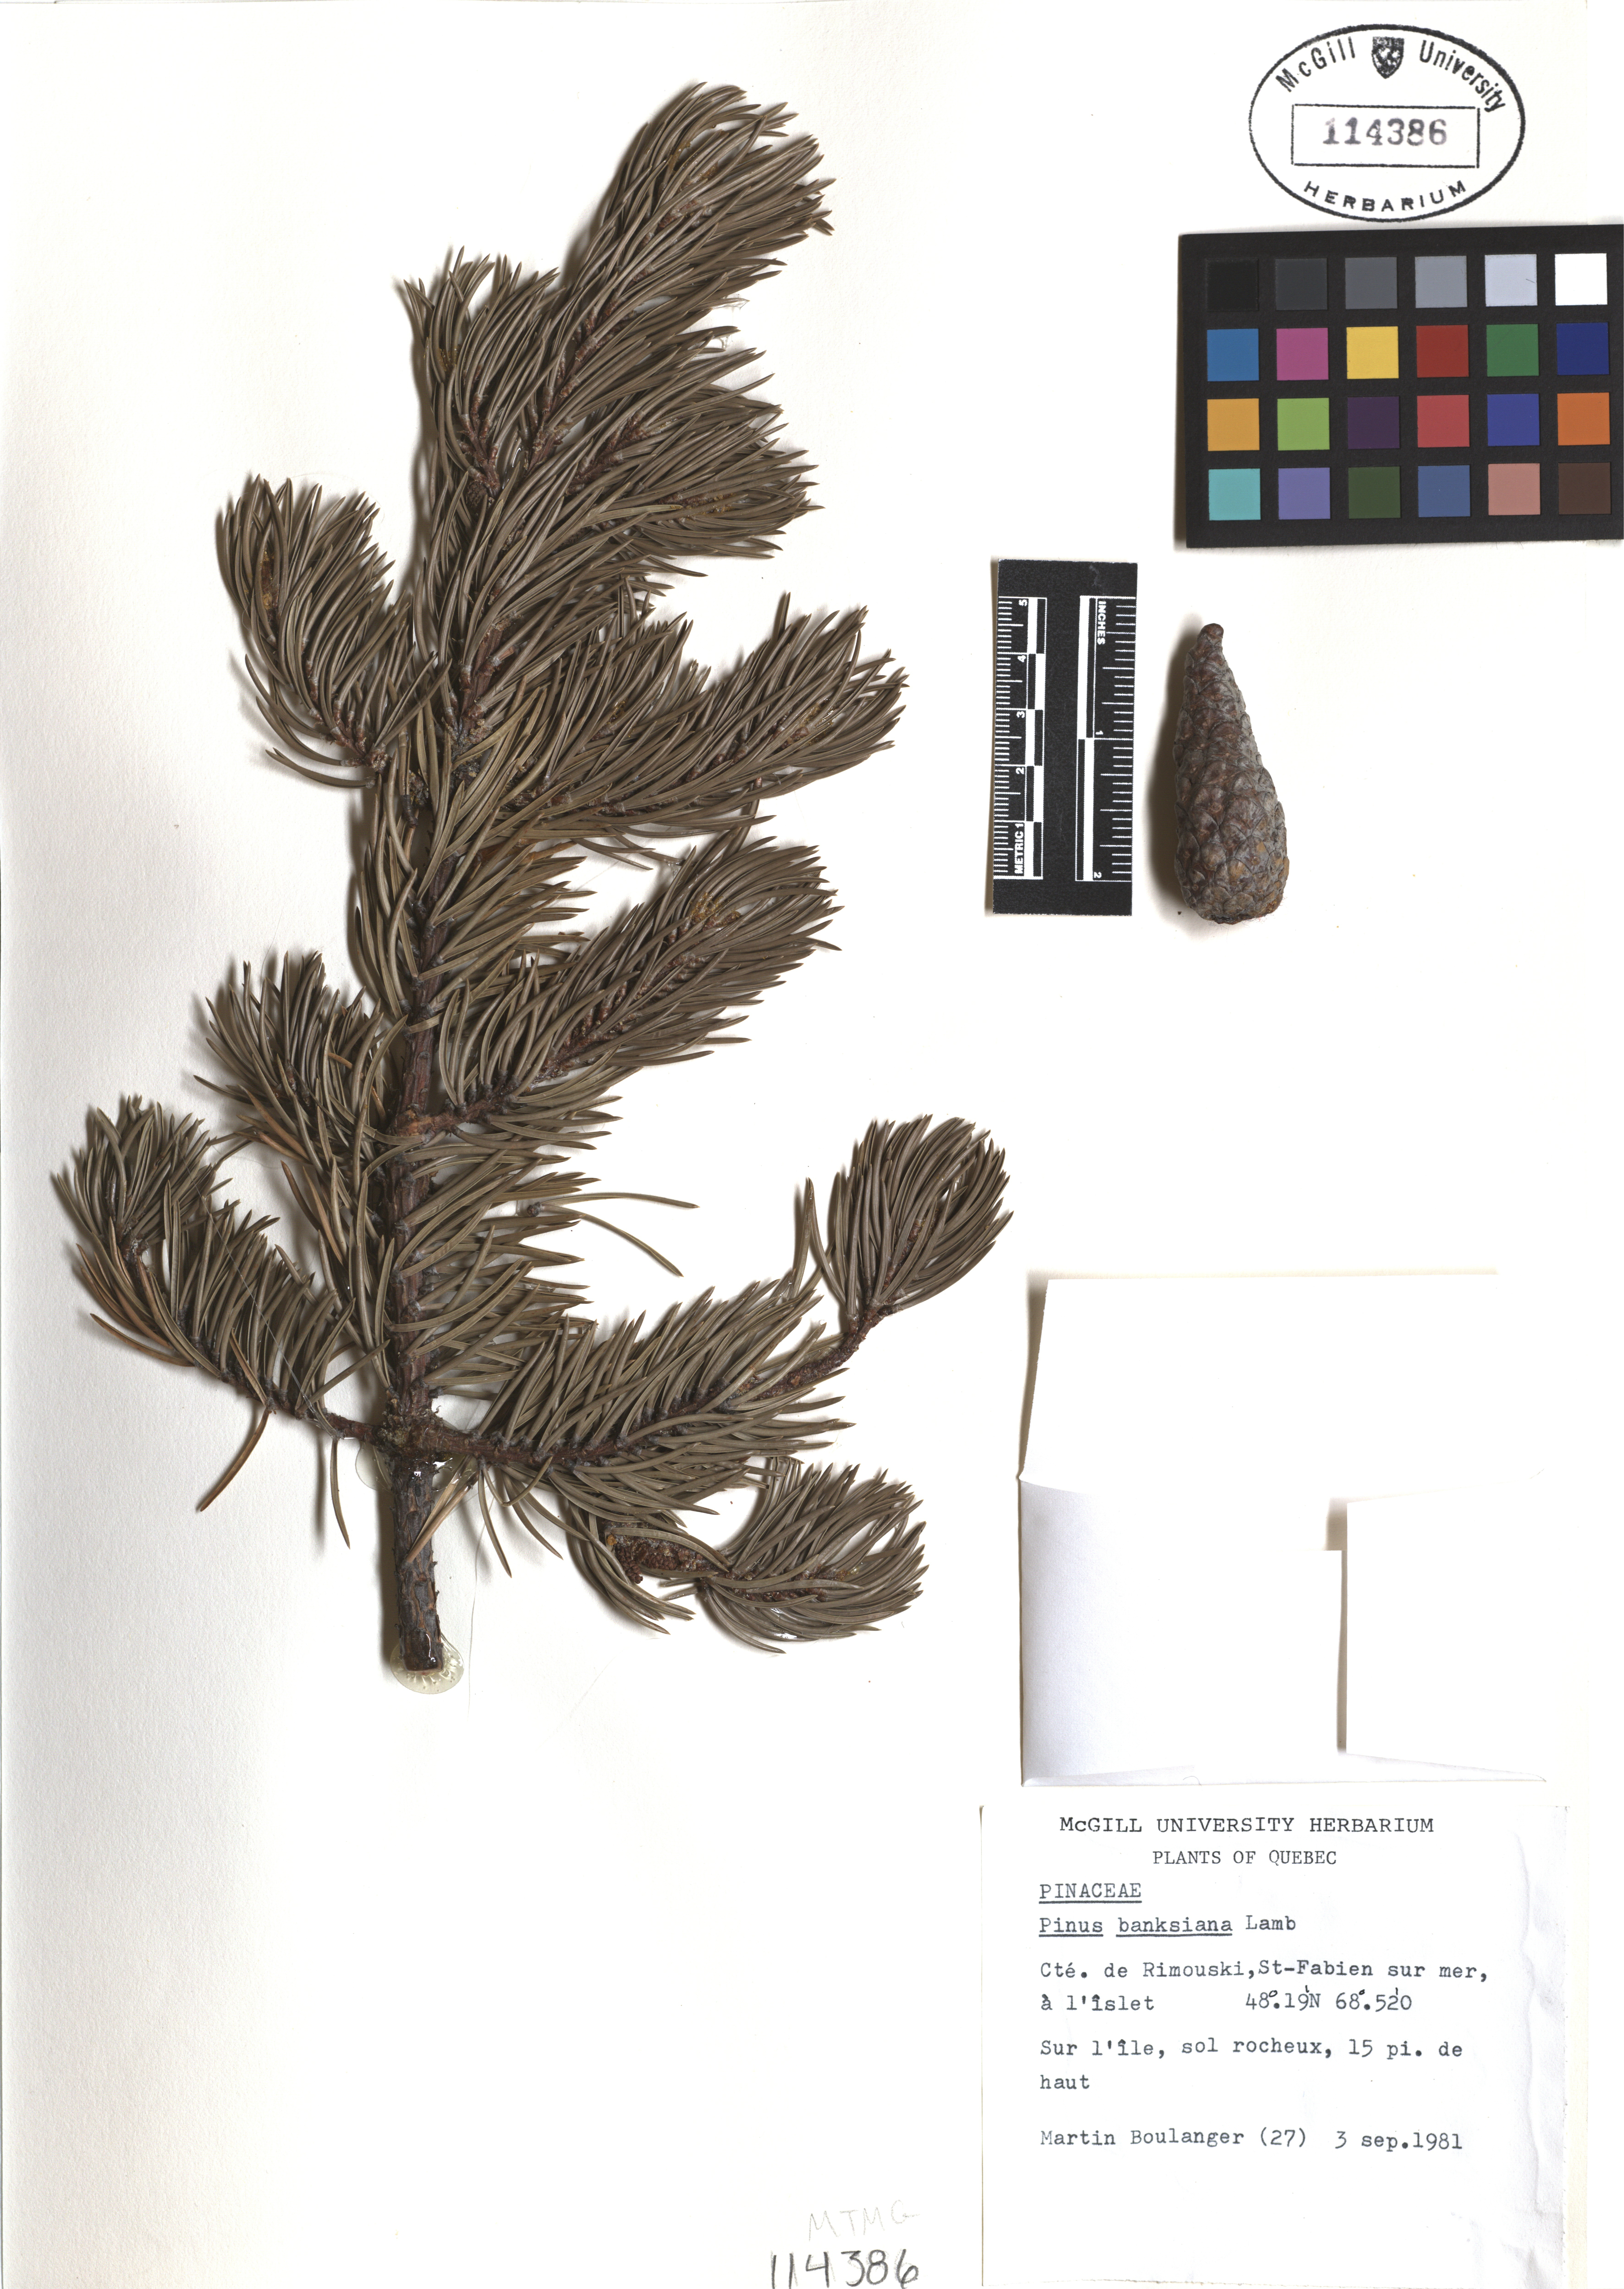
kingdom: Plantae
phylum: Tracheophyta
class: Pinopsida
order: Pinales
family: Pinaceae
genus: Pinus
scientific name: Pinus banksiana
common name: Jack pine
